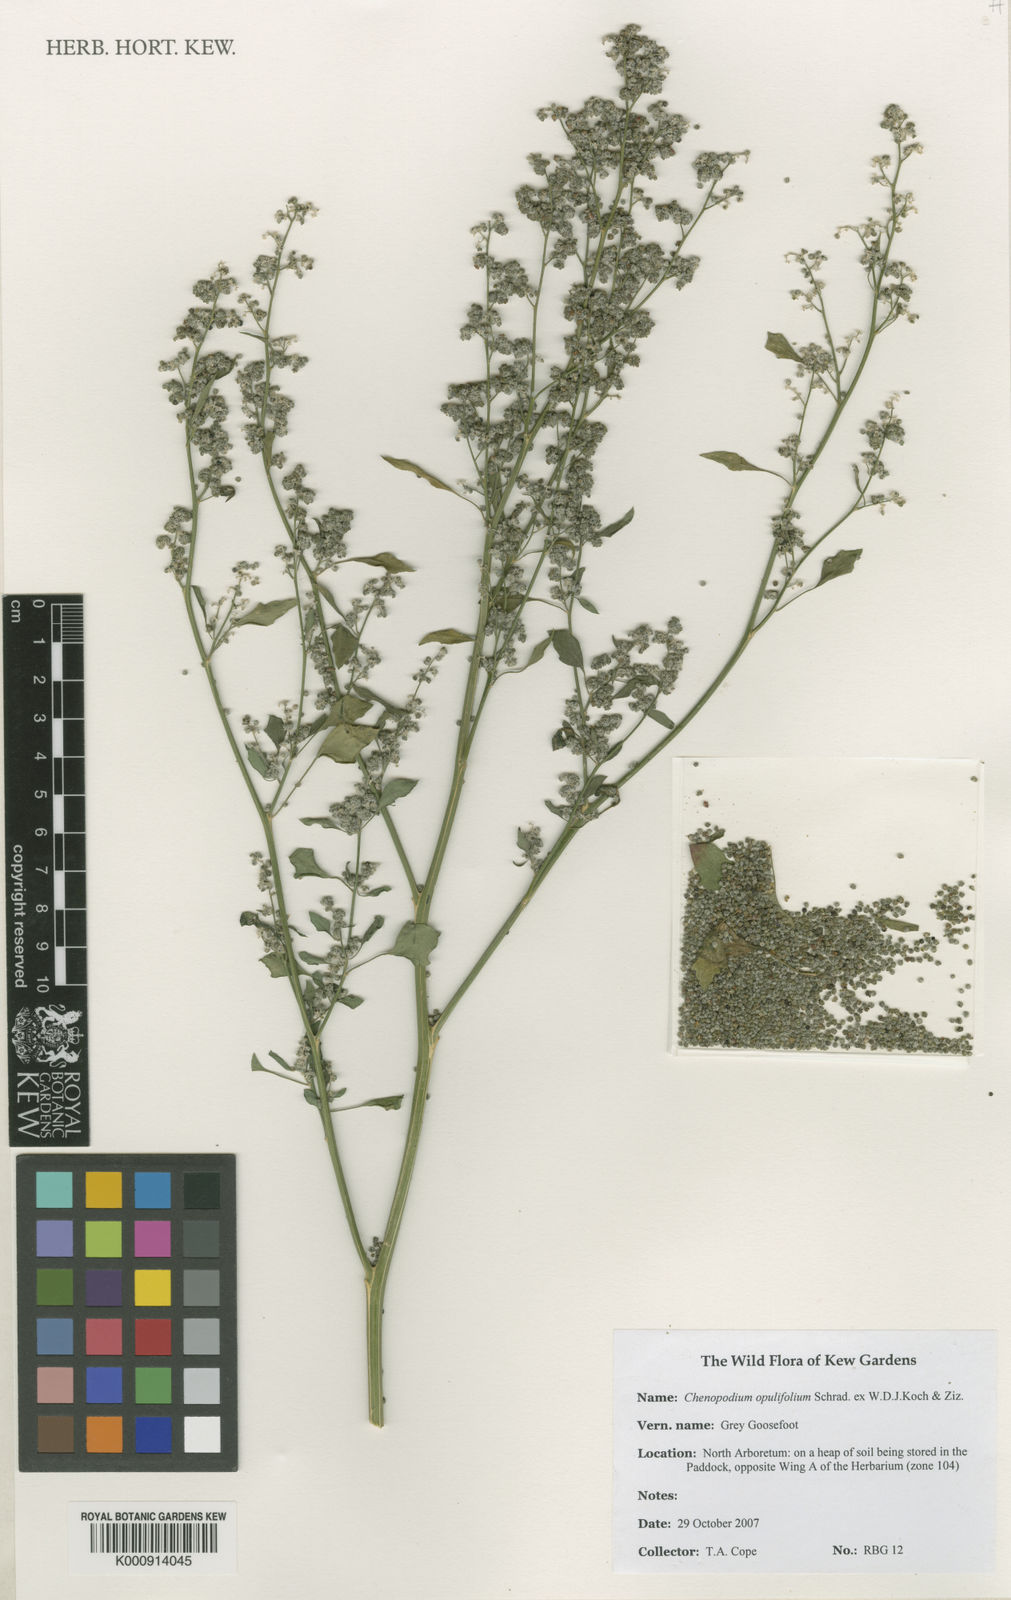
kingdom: Plantae
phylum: Tracheophyta
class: Magnoliopsida
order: Caryophyllales
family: Amaranthaceae
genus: Chenopodium
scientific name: Chenopodium opulifolium
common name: Grey goosefoot
